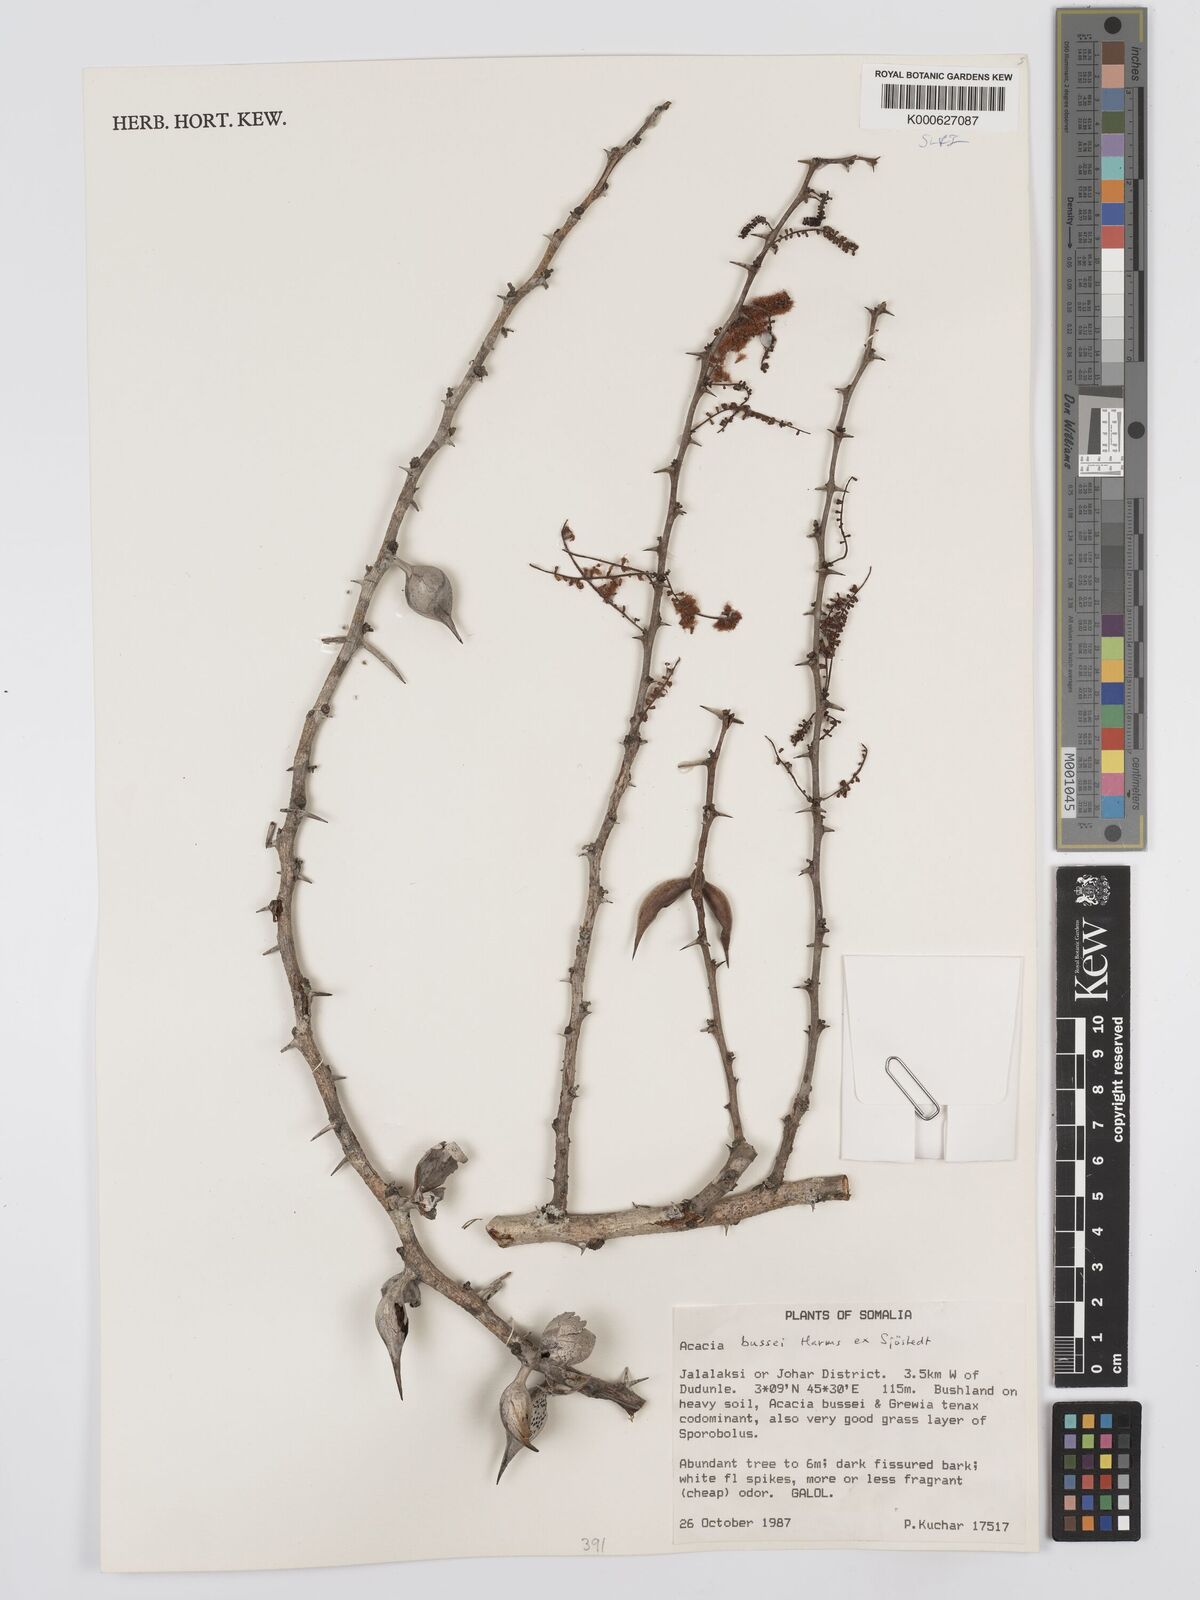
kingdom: Plantae
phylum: Tracheophyta
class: Magnoliopsida
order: Fabales
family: Fabaceae
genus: Vachellia
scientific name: Vachellia bussei
